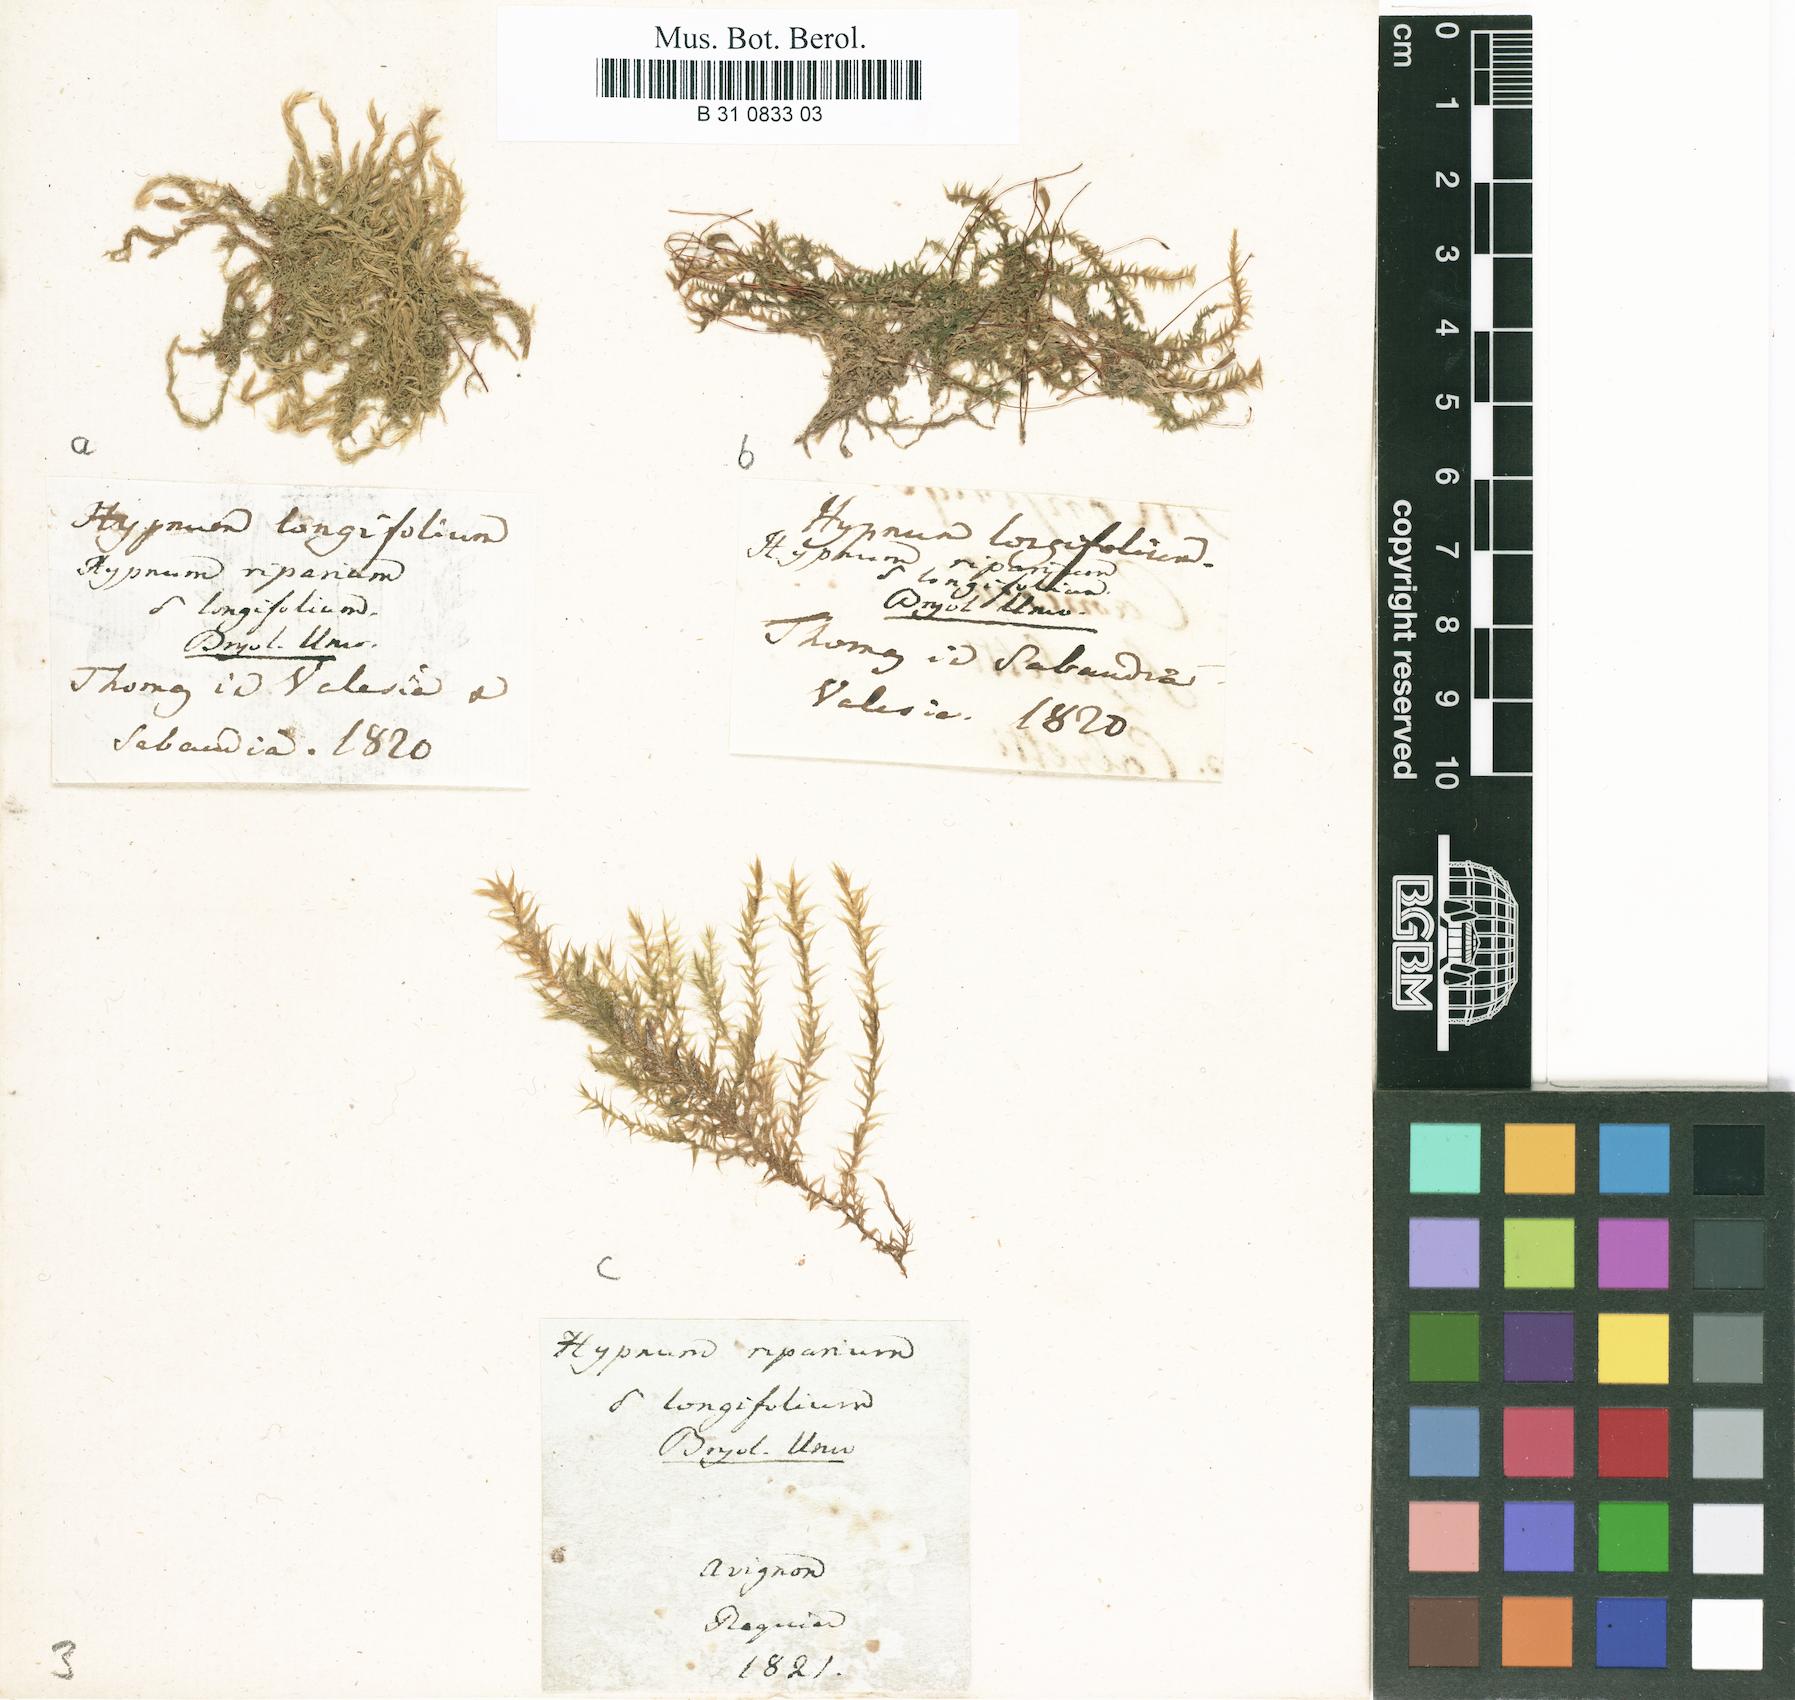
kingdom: Plantae
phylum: Bryophyta
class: Bryopsida
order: Hypnales
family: Amblystegiaceae
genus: Leptodictyum
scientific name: Leptodictyum riparium
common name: Riparian feather moss
